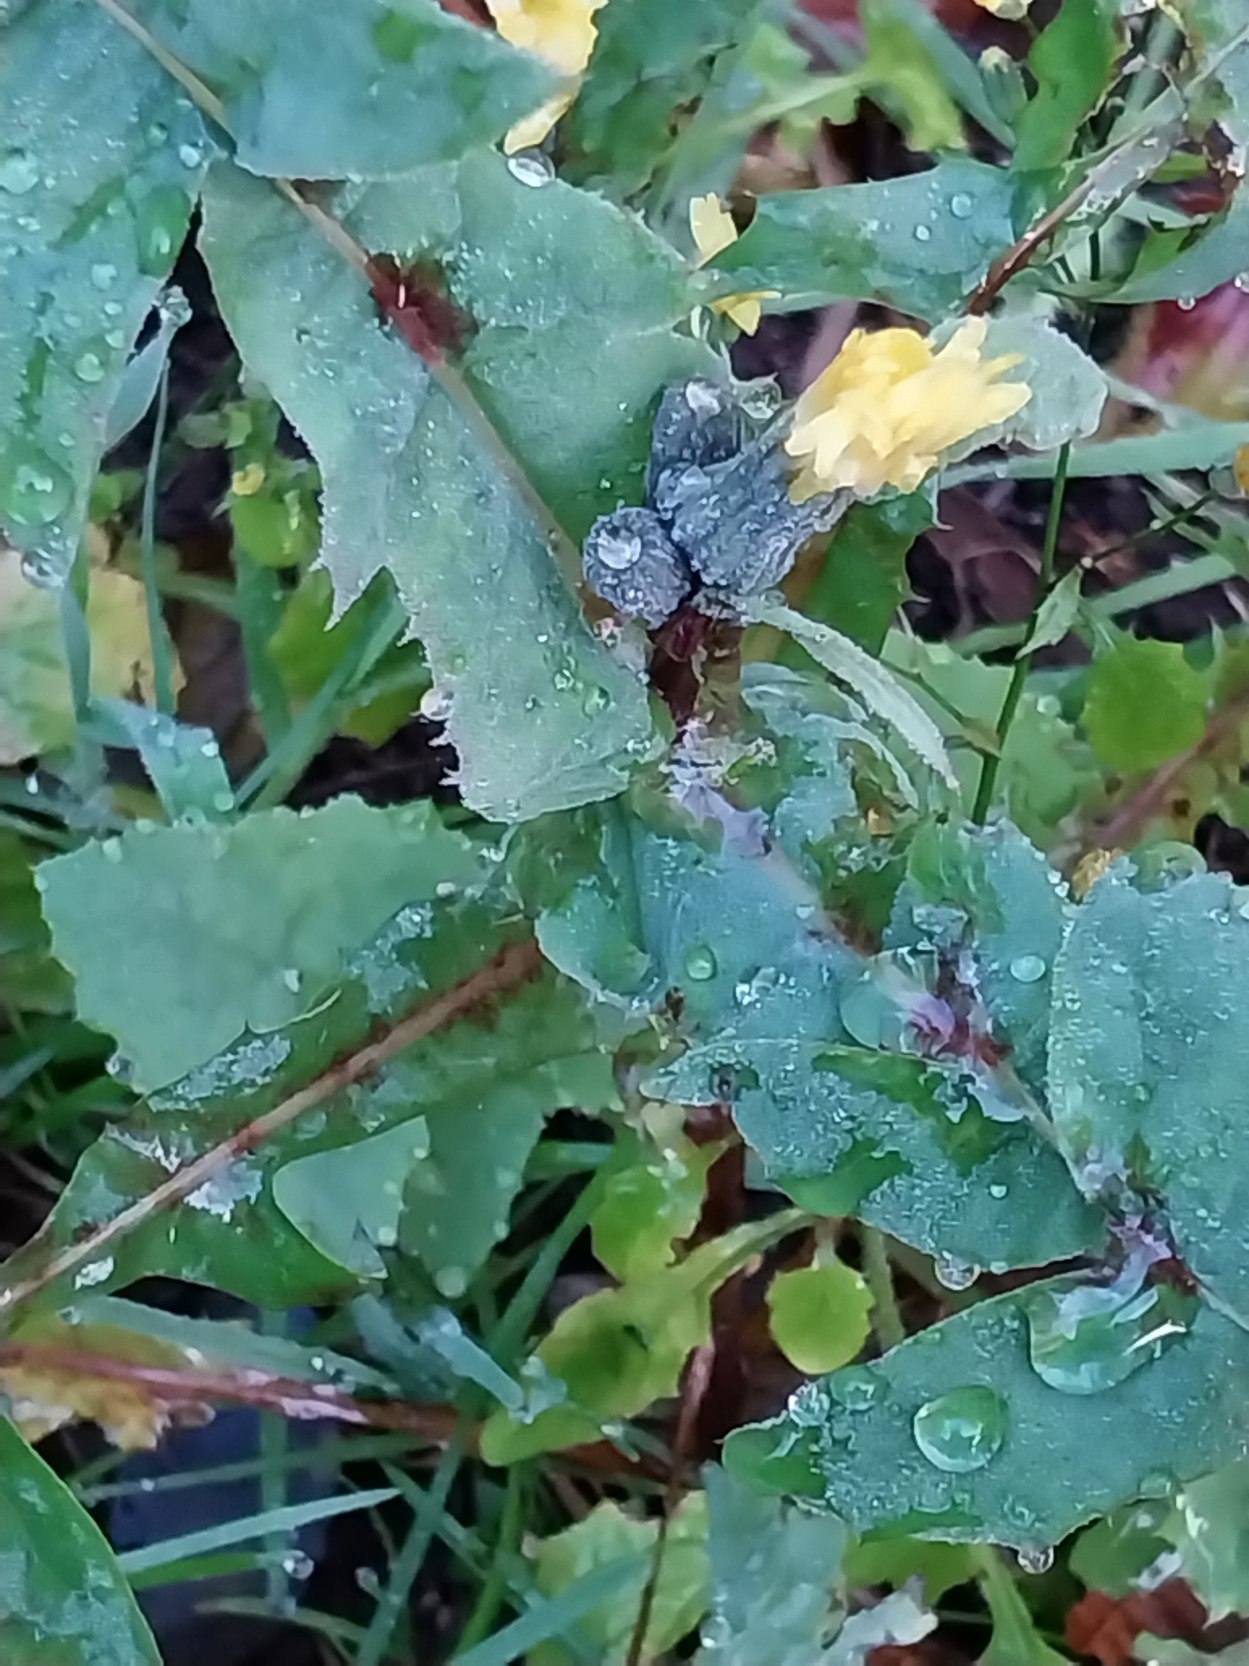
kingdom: Plantae
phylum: Tracheophyta
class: Magnoliopsida
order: Asterales
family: Asteraceae
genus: Sonchus
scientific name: Sonchus oleraceus
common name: Almindelig svinemælk
